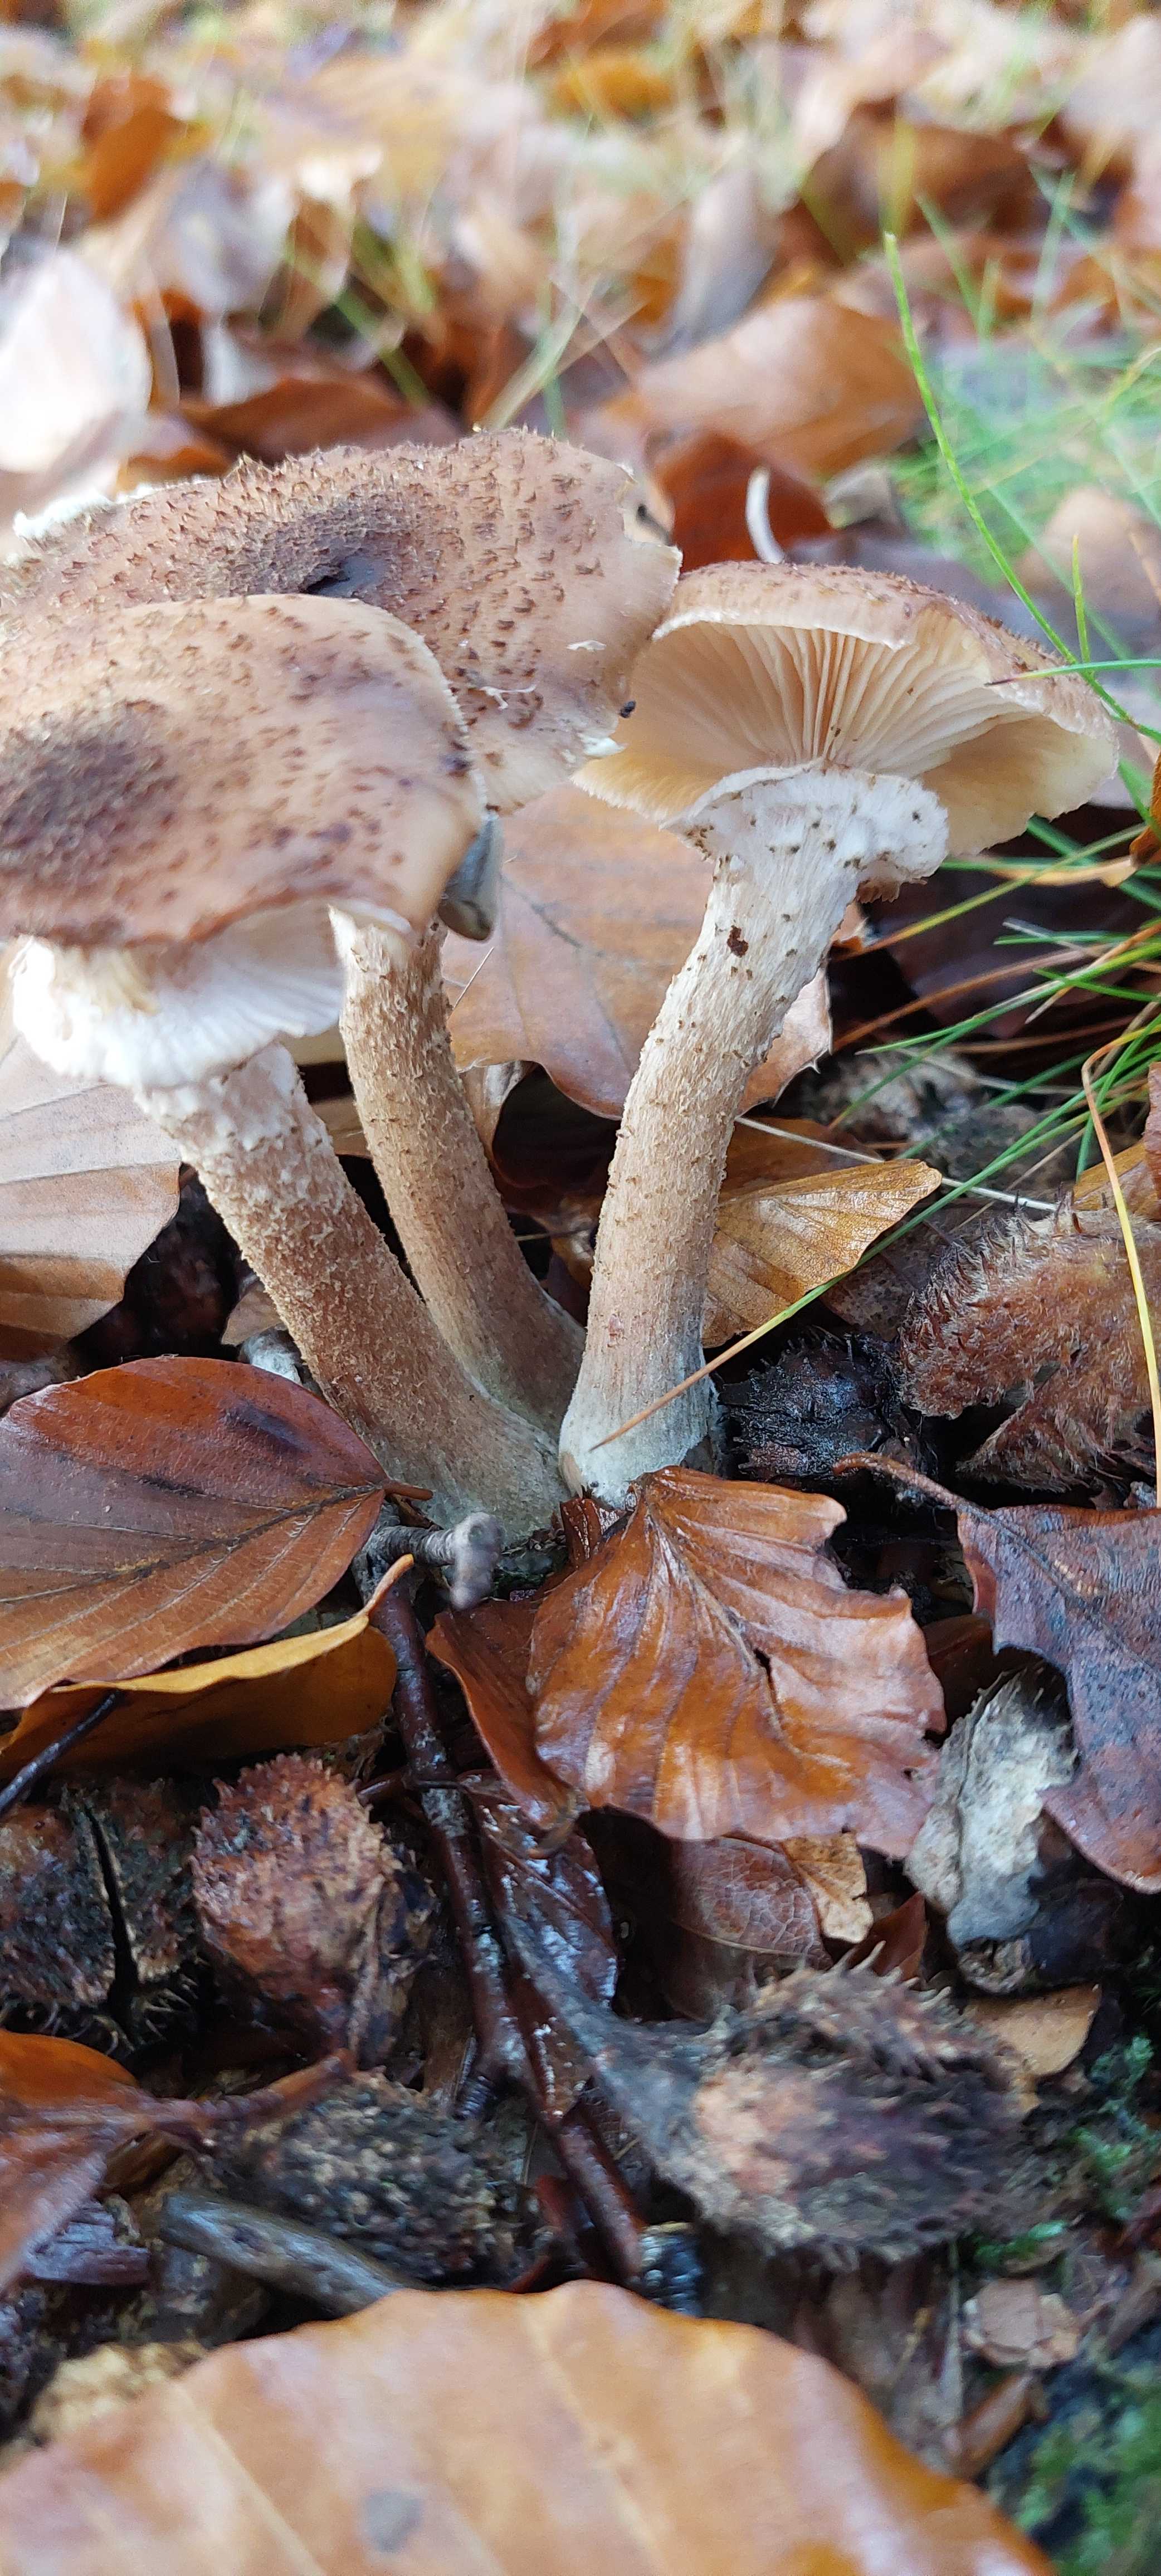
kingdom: Fungi
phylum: Basidiomycota
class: Agaricomycetes
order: Agaricales
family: Physalacriaceae
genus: Armillaria
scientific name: Armillaria ostoyae
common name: mørk honningsvamp
